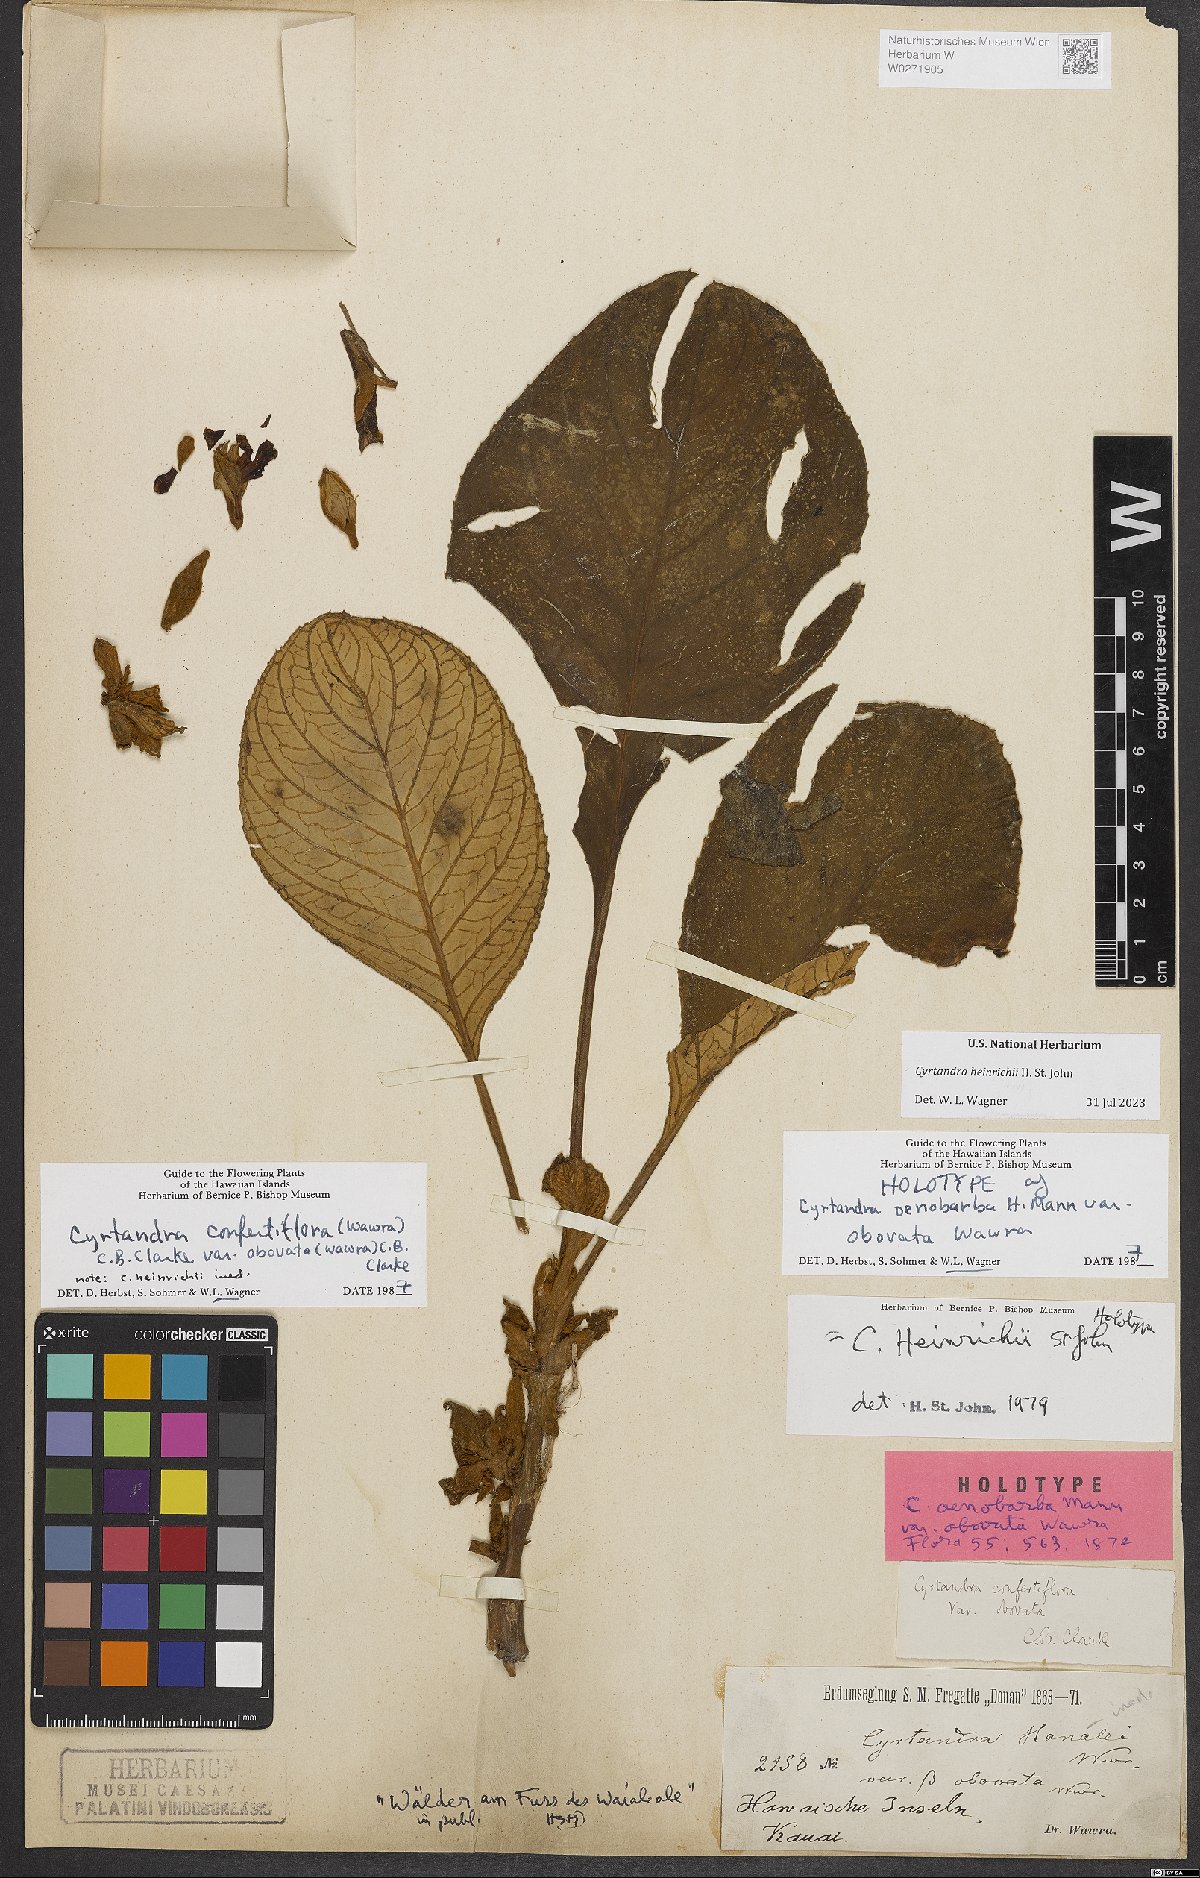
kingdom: Plantae
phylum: Tracheophyta
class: Magnoliopsida
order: Lamiales
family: Gesneriaceae
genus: Cyrtandra
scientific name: Cyrtandra heinrichii
